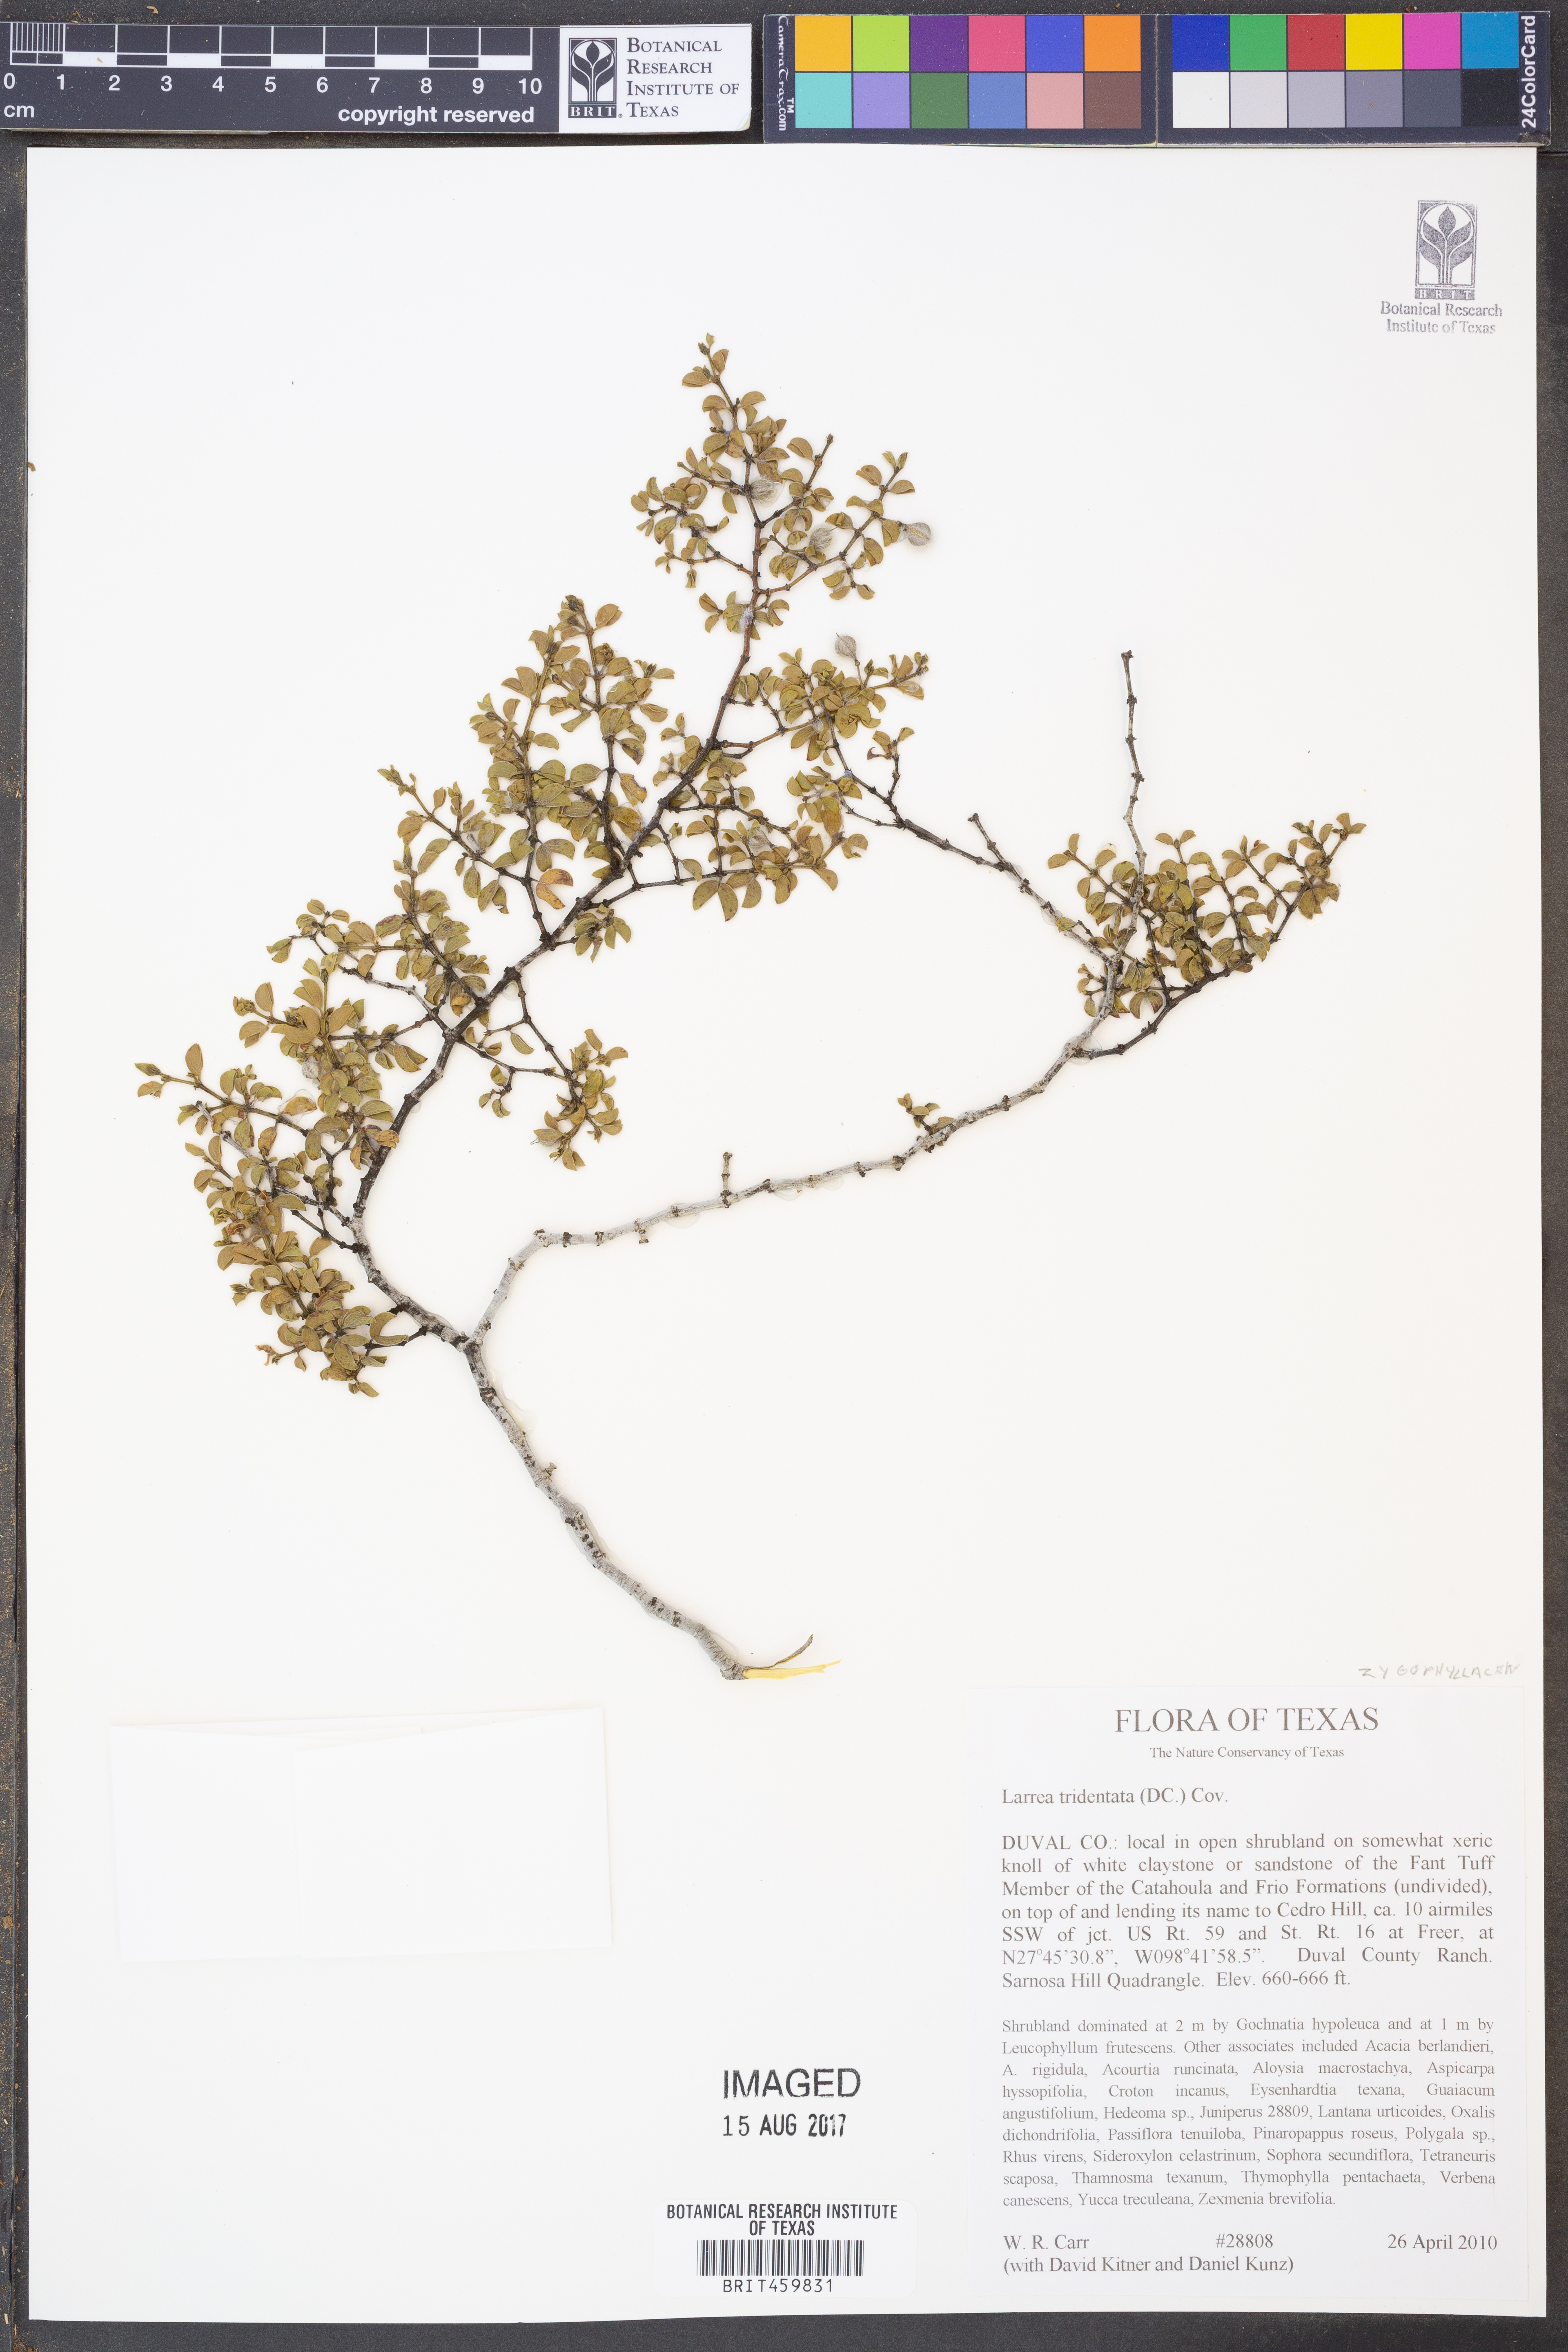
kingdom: Plantae
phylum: Tracheophyta
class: Magnoliopsida
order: Zygophyllales
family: Zygophyllaceae
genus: Larrea
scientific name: Larrea tridentata
